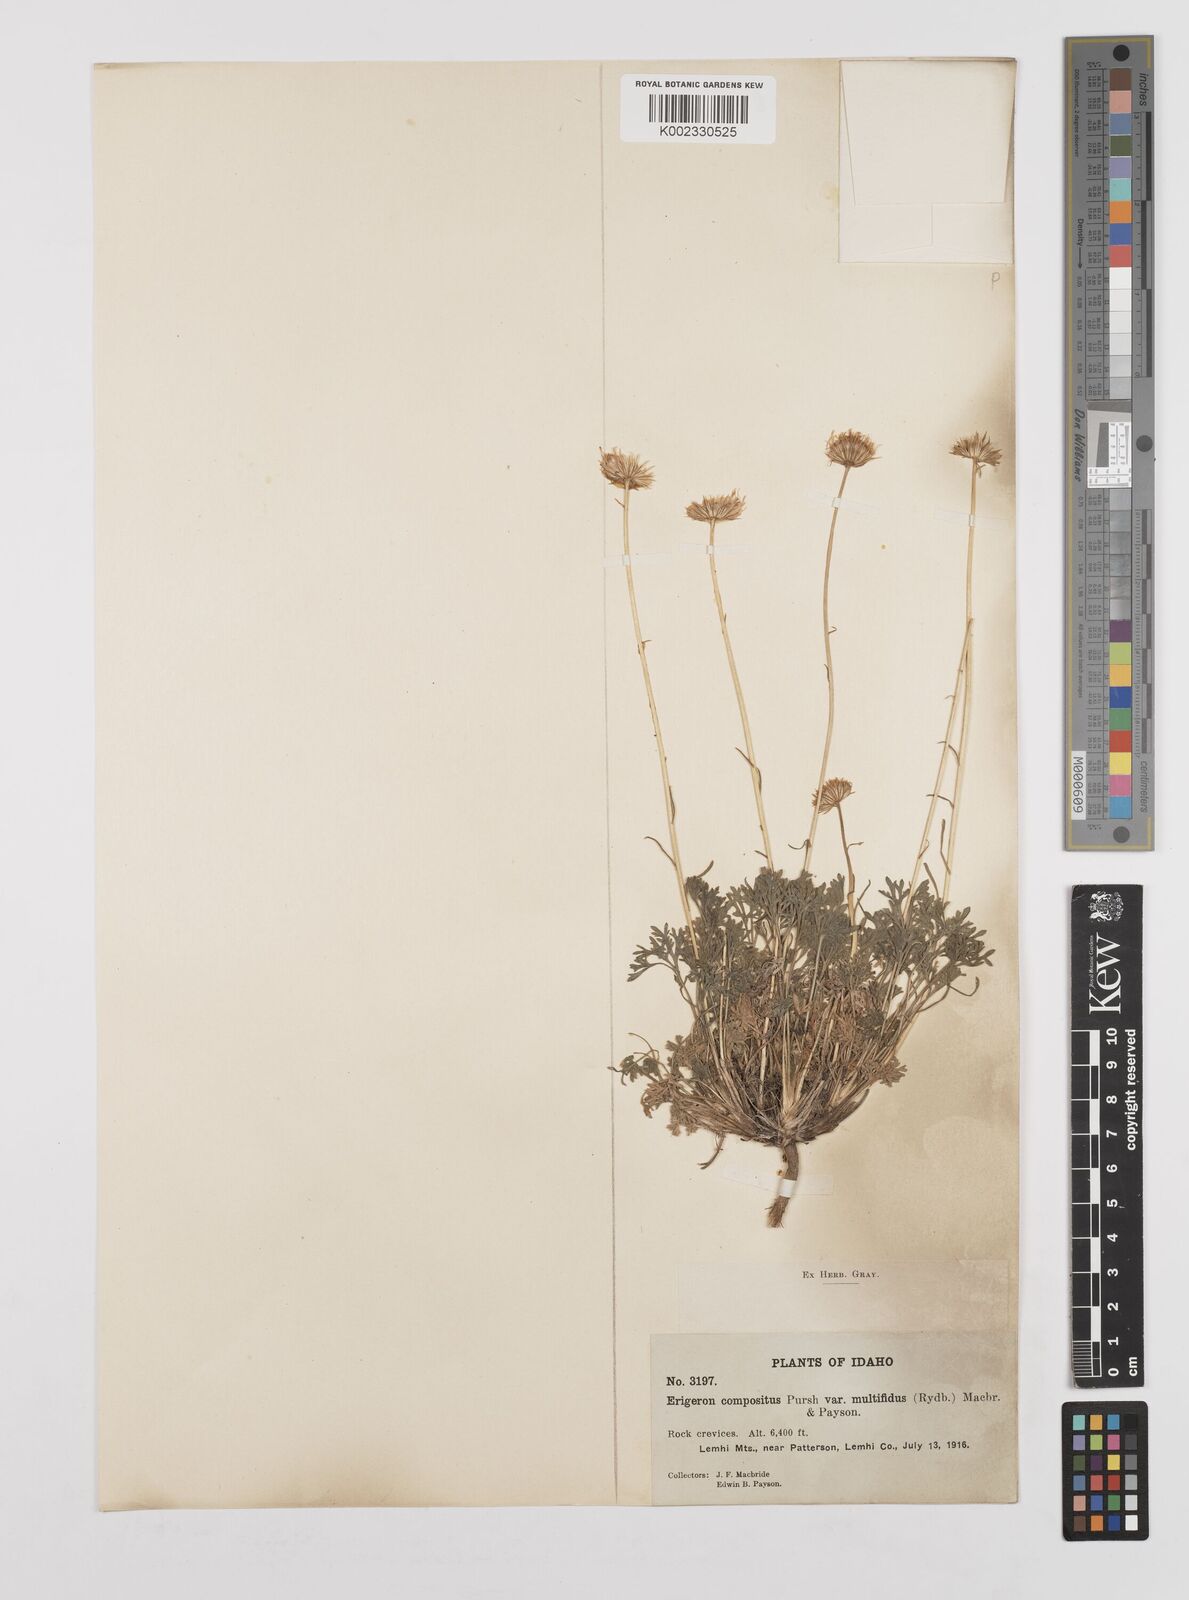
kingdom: Plantae
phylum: Tracheophyta
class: Magnoliopsida
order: Asterales
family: Asteraceae
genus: Erigeron
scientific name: Erigeron compositus
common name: Dwarf mountain fleabane
